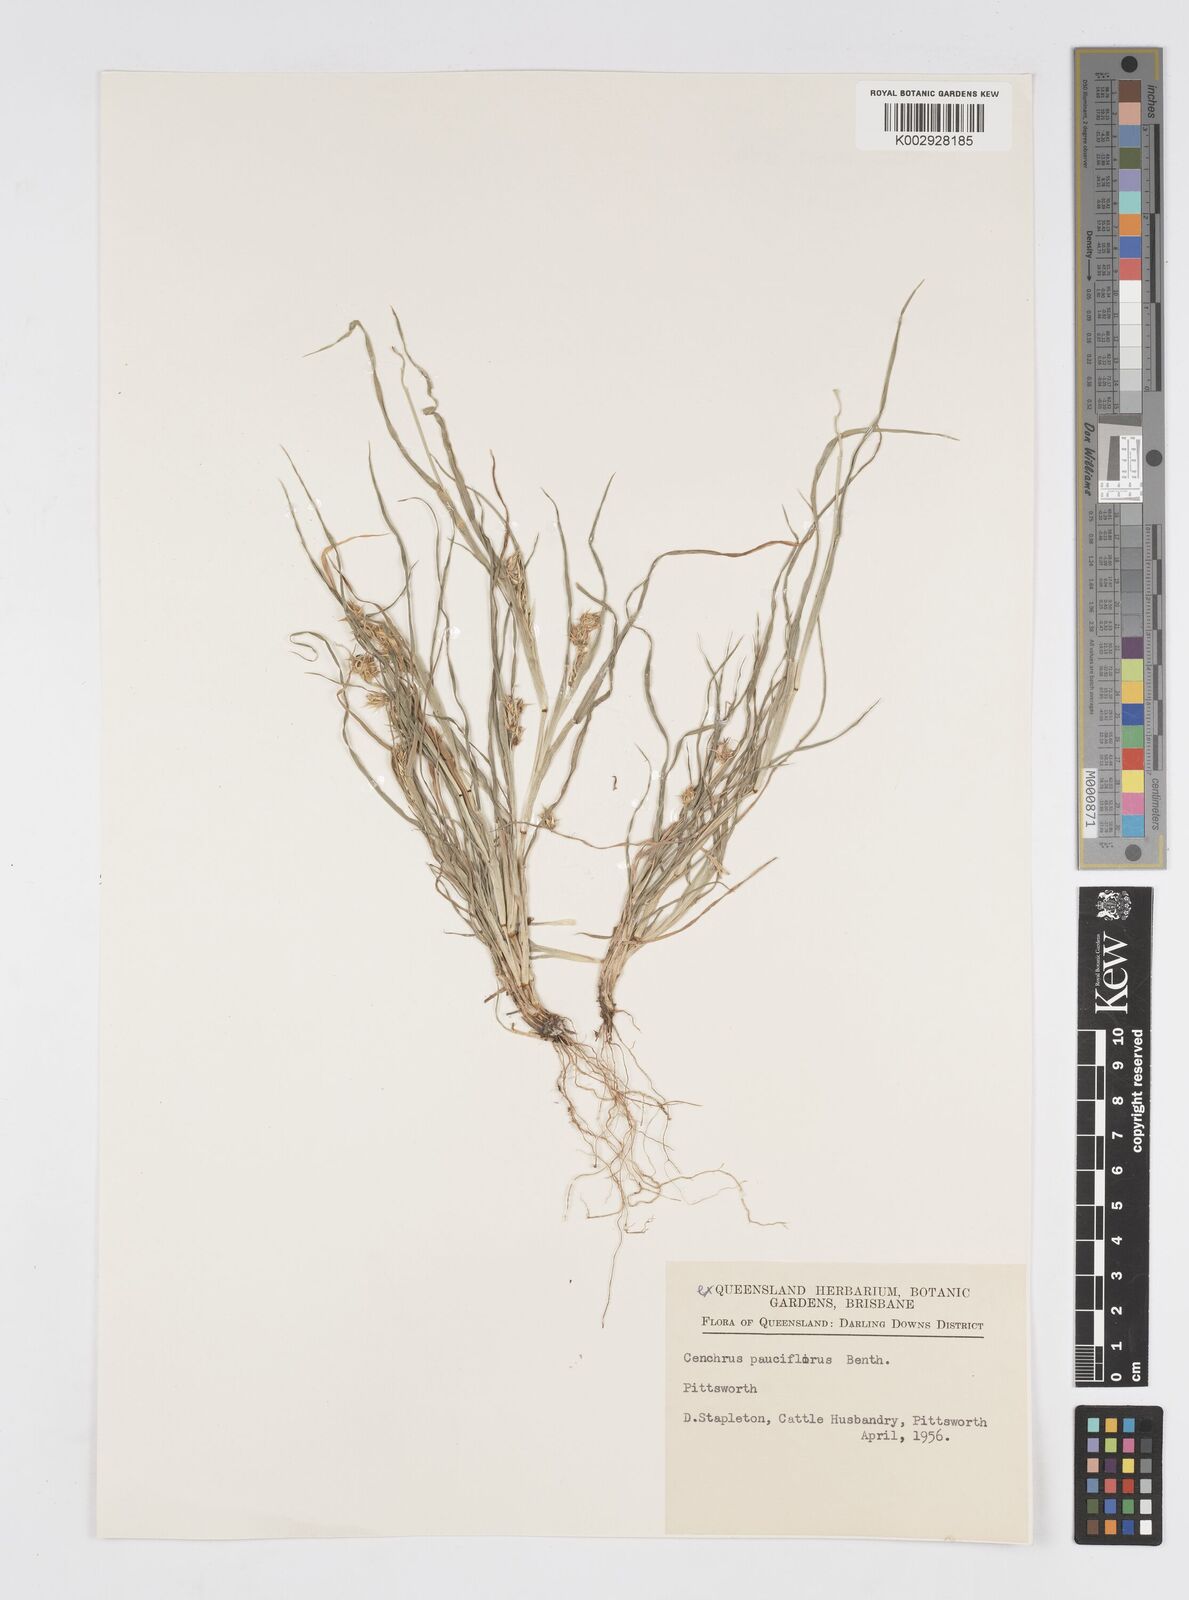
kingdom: Plantae
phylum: Tracheophyta
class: Liliopsida
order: Poales
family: Poaceae
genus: Cenchrus
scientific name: Cenchrus spinifex
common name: Coast sandbur
